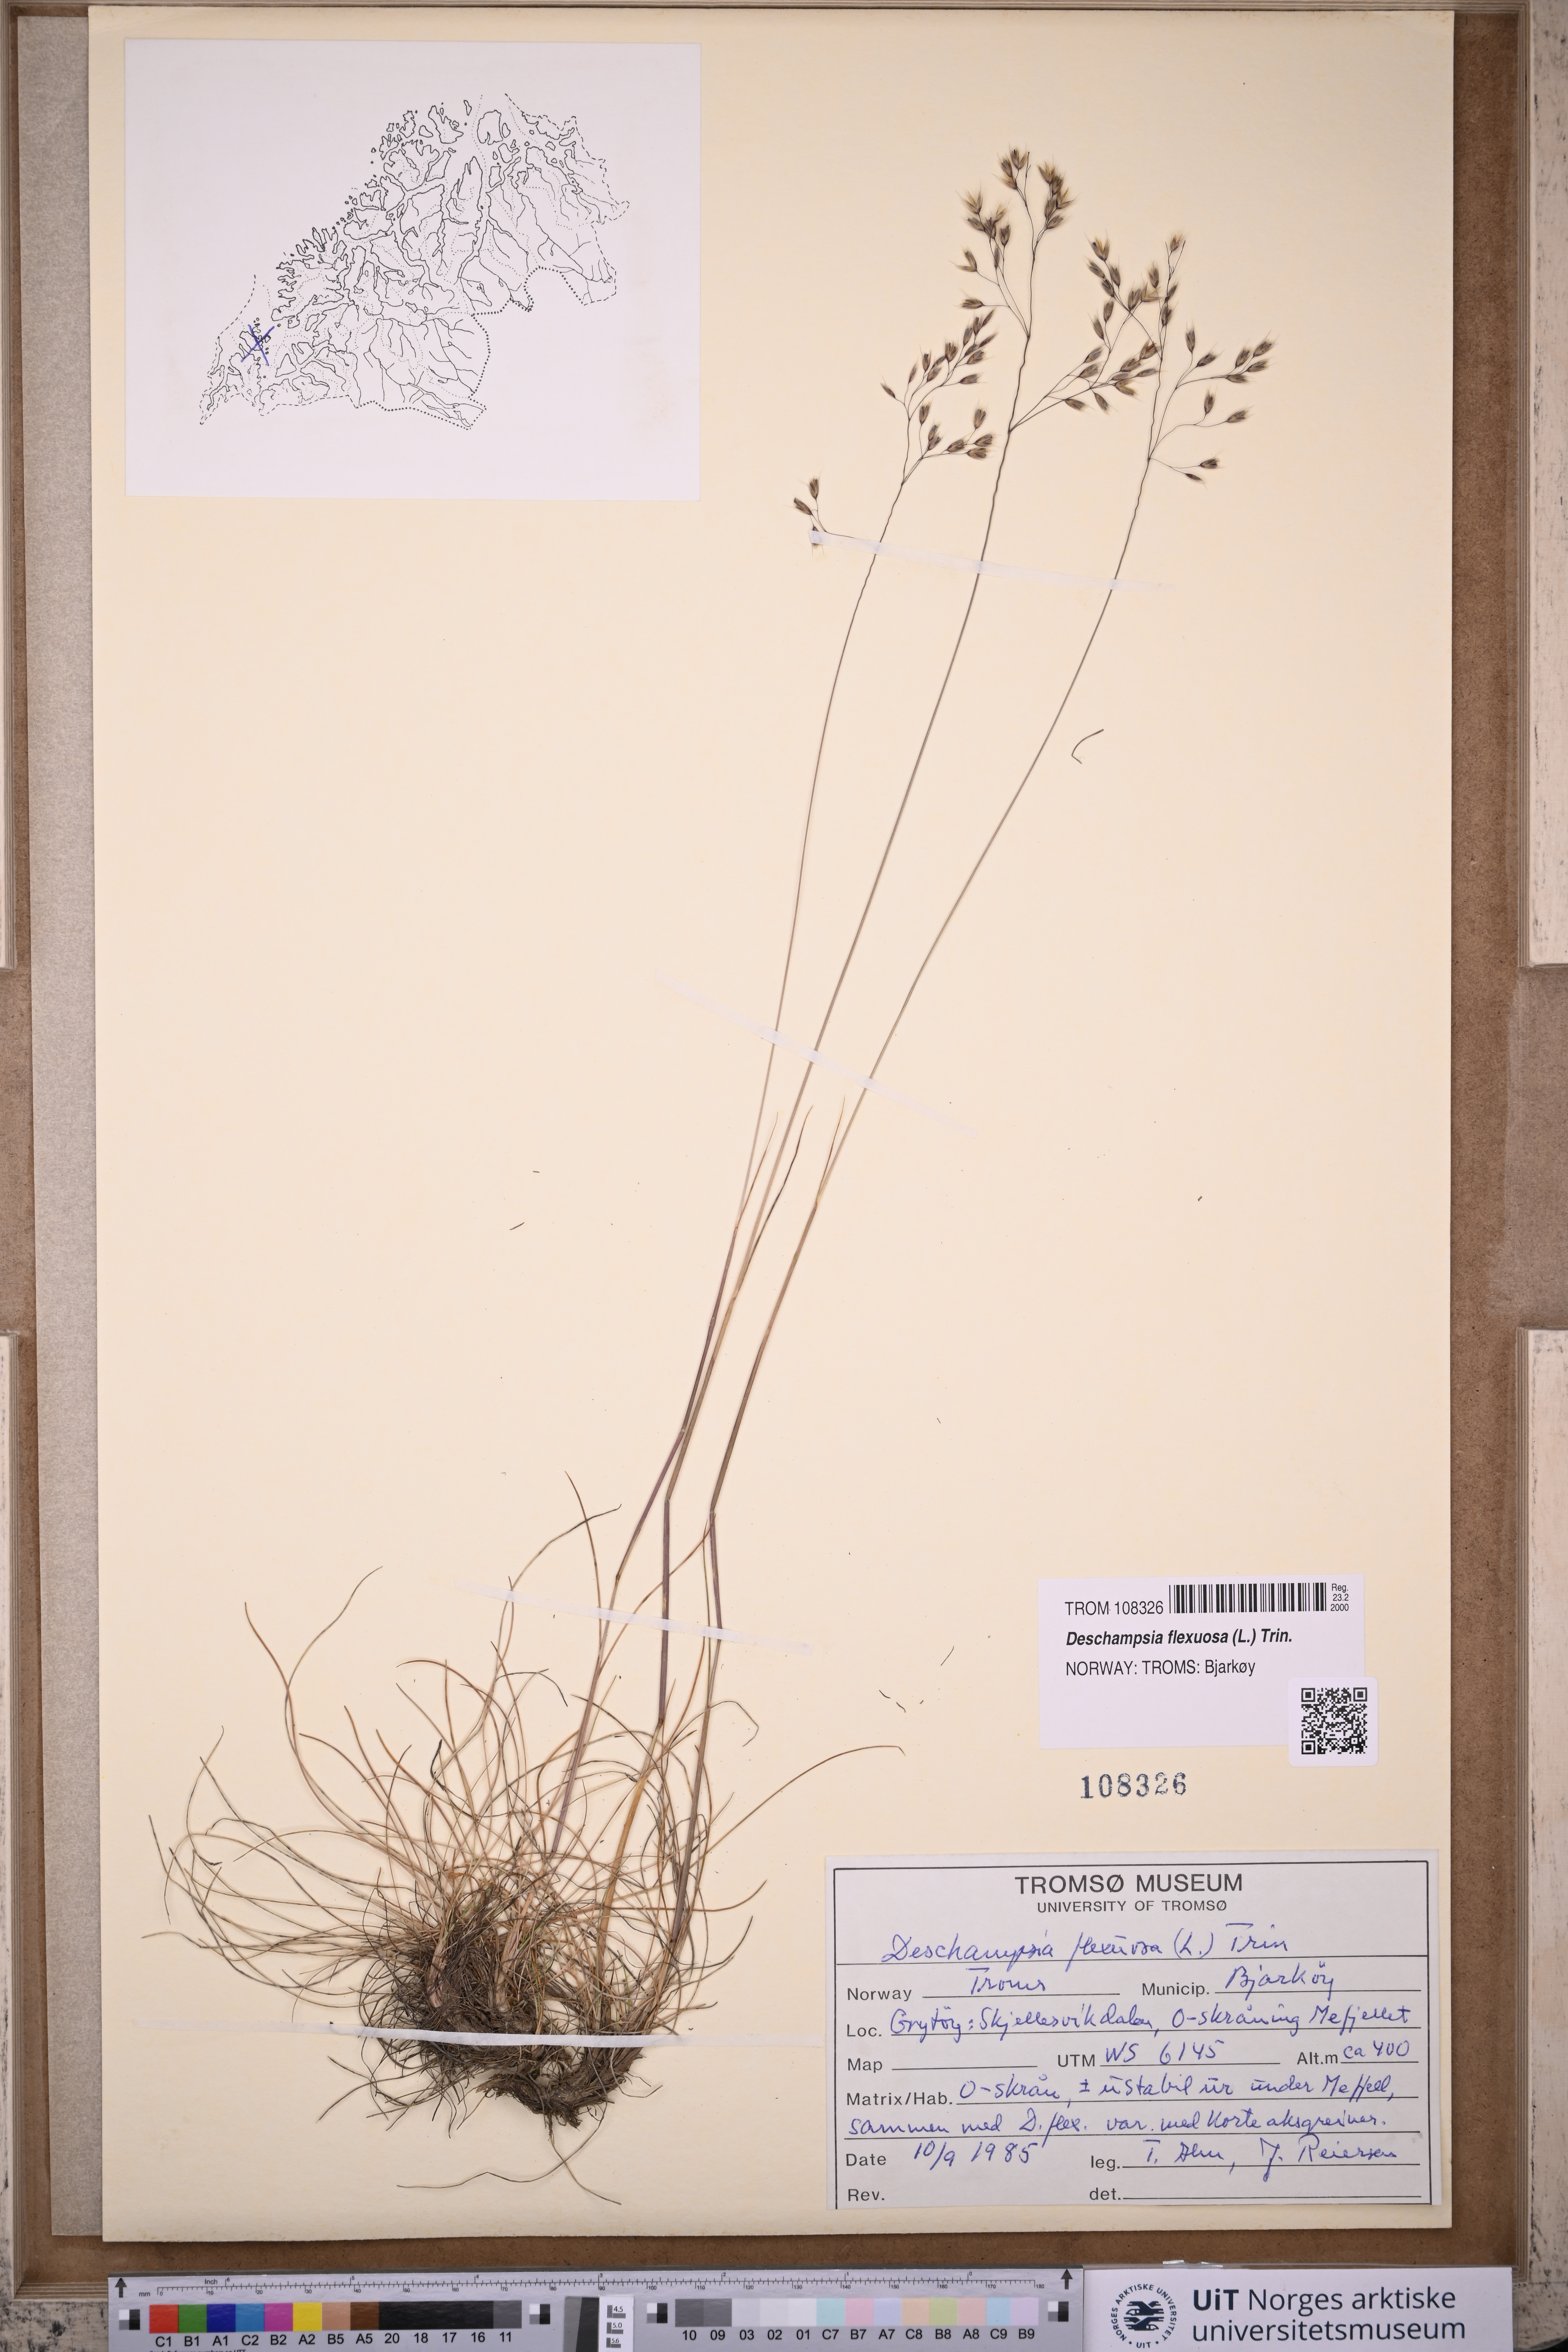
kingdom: Plantae
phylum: Tracheophyta
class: Liliopsida
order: Poales
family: Poaceae
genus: Avenella
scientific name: Avenella flexuosa
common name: Wavy hairgrass
